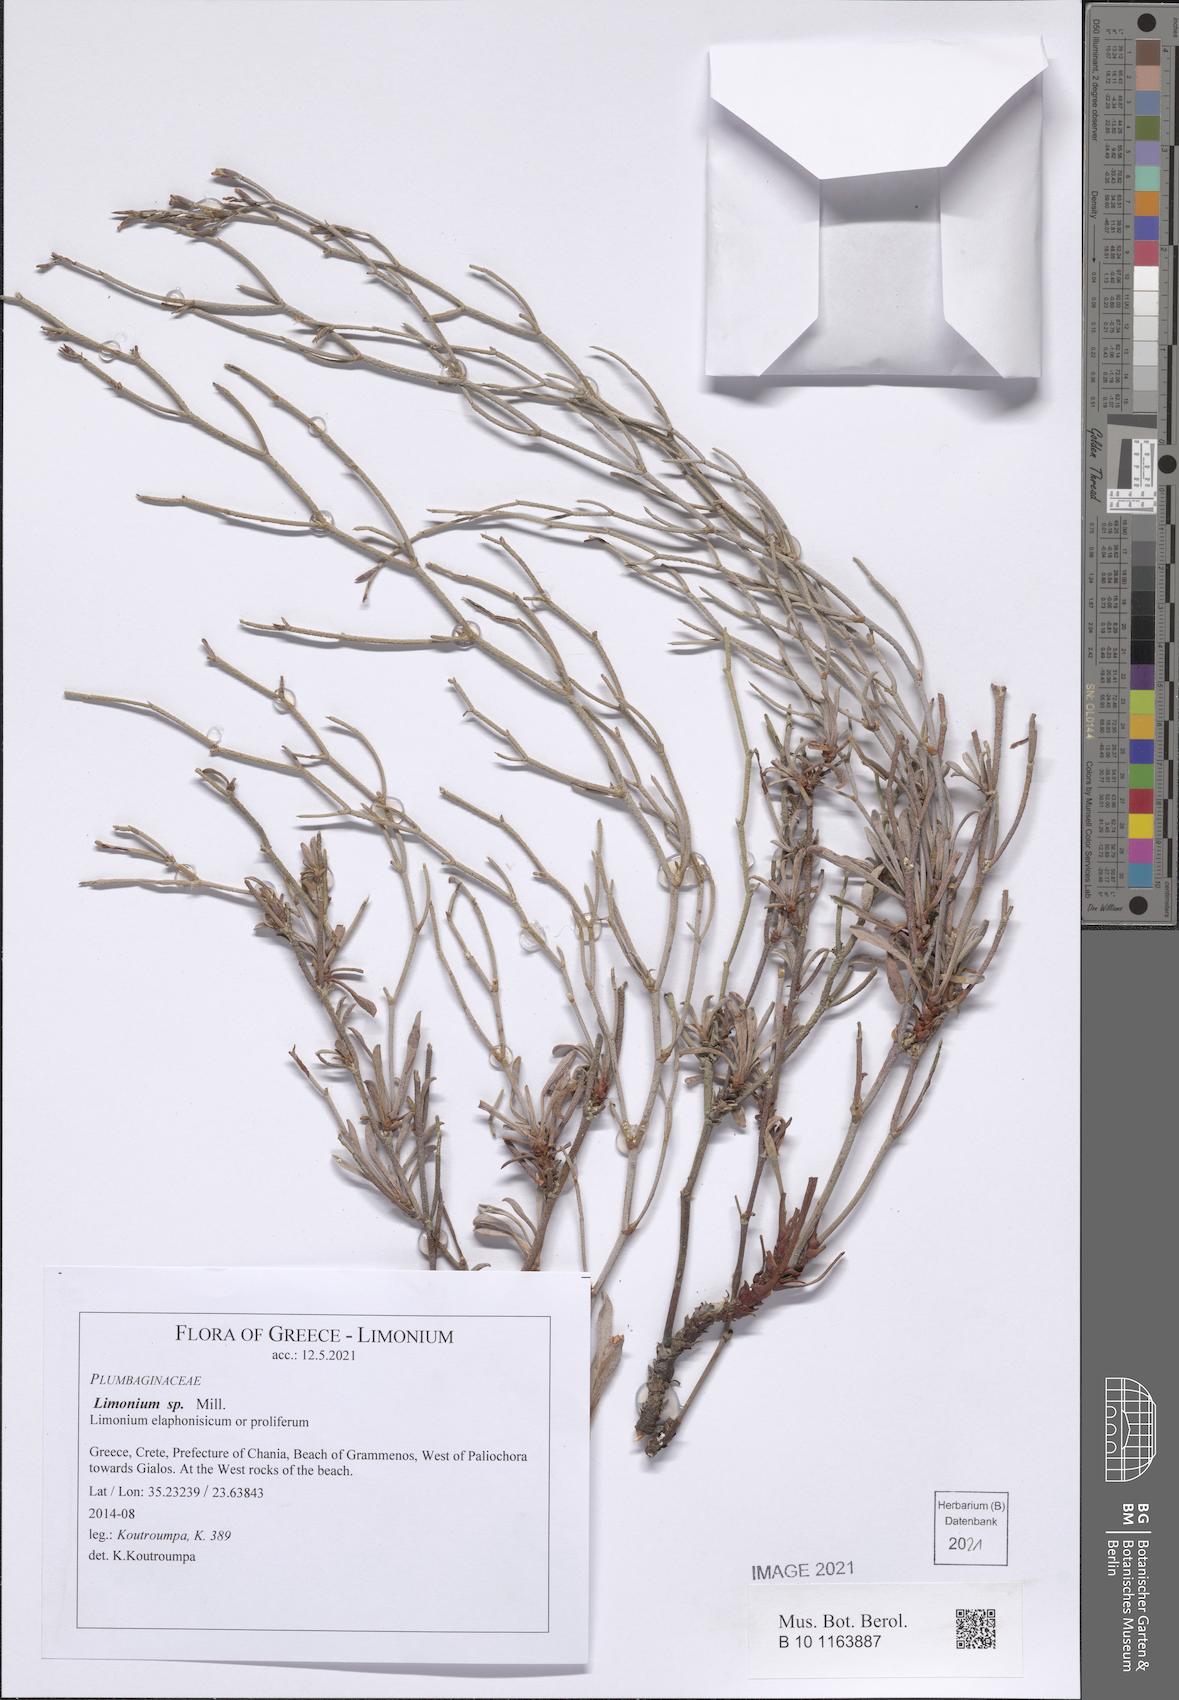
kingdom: Plantae
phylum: Tracheophyta
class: Magnoliopsida
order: Caryophyllales
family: Plumbaginaceae
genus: Limonium
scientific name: Limonium
